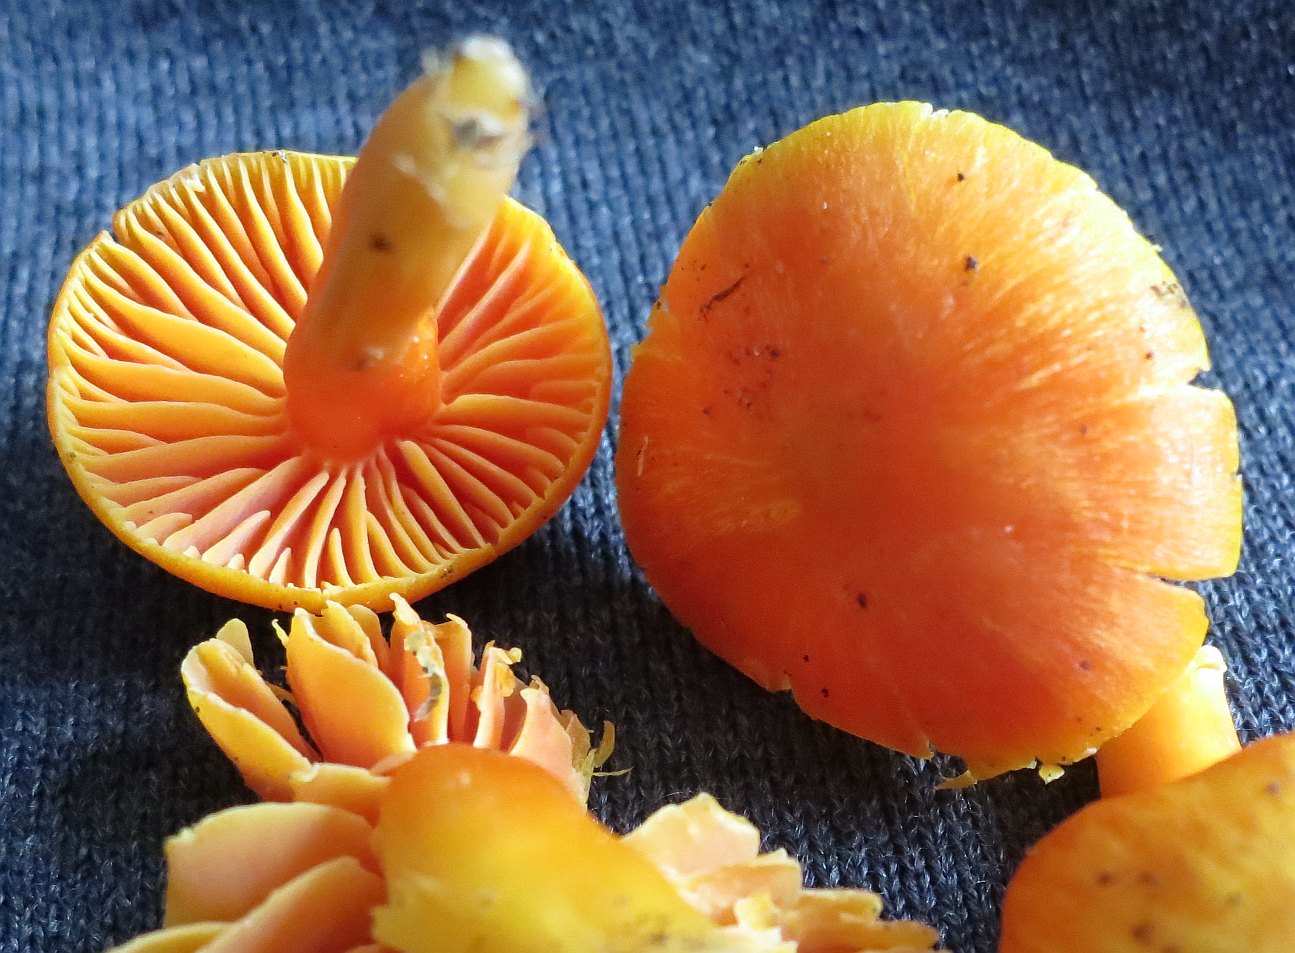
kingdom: Fungi
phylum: Basidiomycota
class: Agaricomycetes
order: Agaricales
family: Hygrophoraceae
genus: Hygrocybe
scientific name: Hygrocybe quieta
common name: tæge-vokshat
